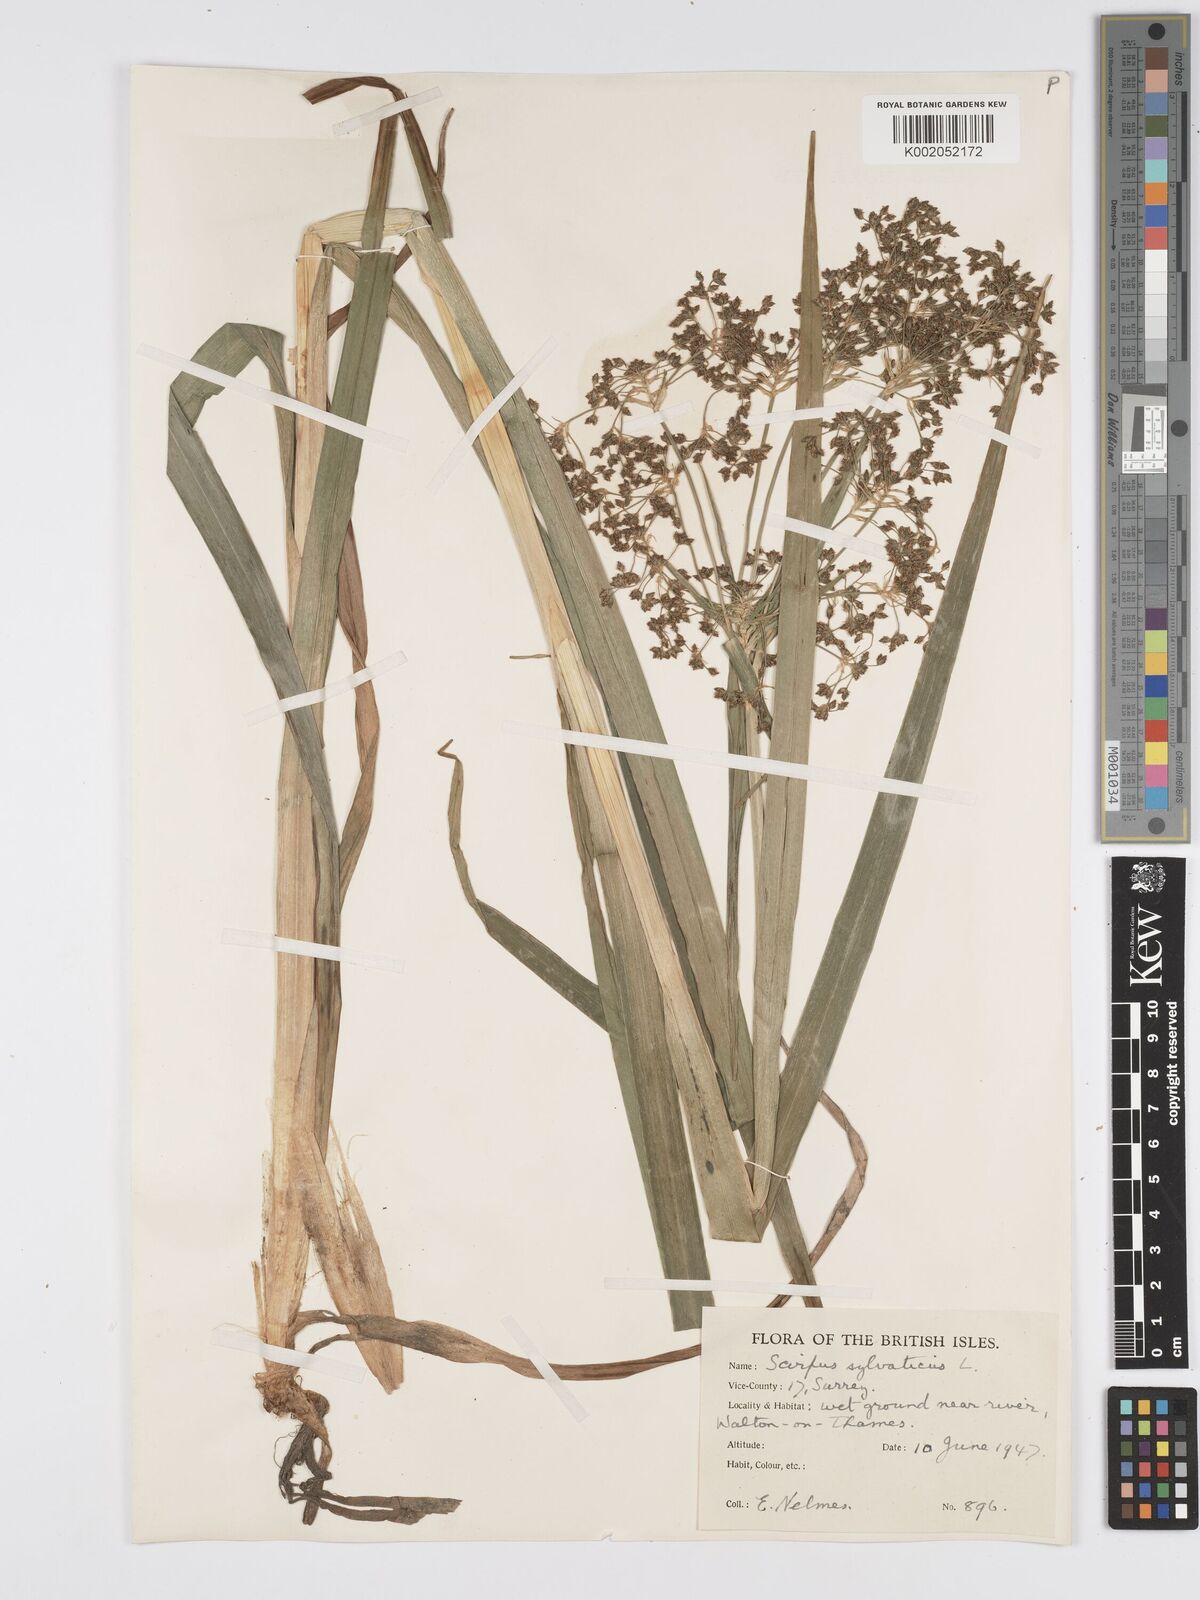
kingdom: Plantae
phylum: Tracheophyta
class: Liliopsida
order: Poales
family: Cyperaceae
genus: Scirpus
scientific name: Scirpus sylvaticus
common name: Wood club-rush
